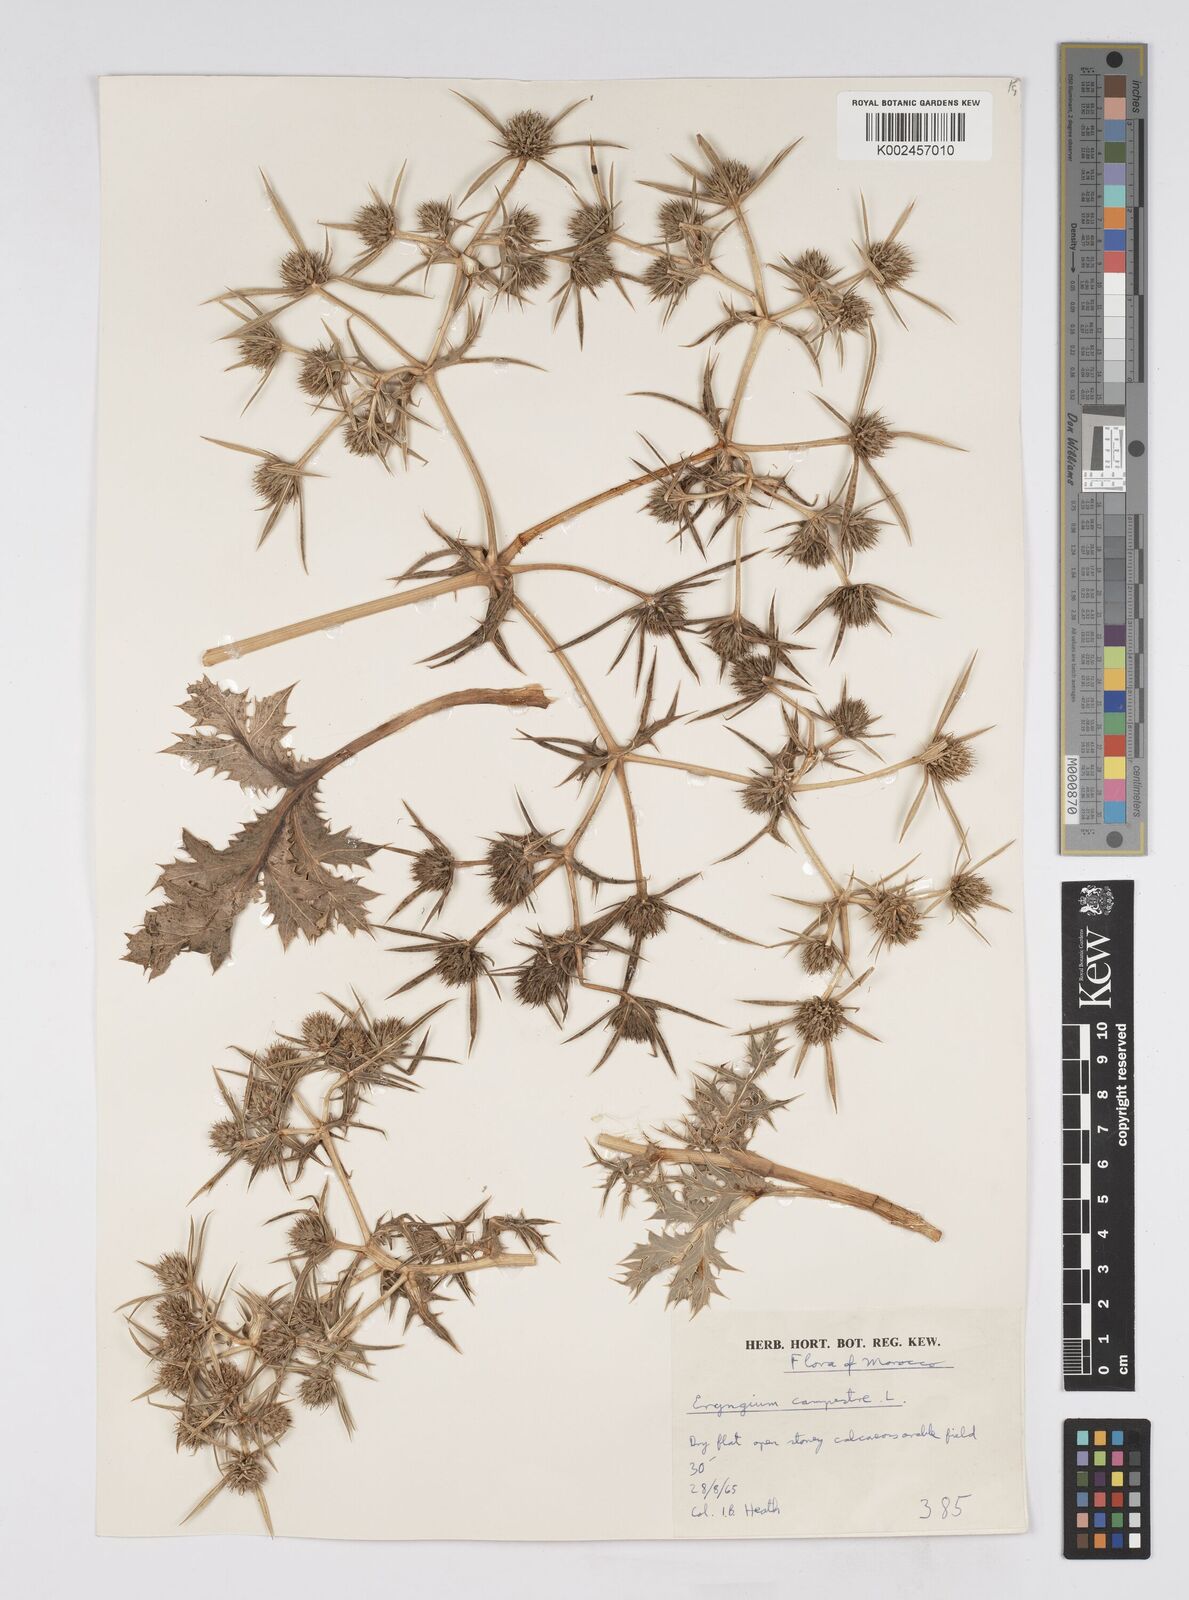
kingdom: Plantae
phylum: Tracheophyta
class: Magnoliopsida
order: Apiales
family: Apiaceae
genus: Eryngium
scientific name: Eryngium campestre
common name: Field eryngo
